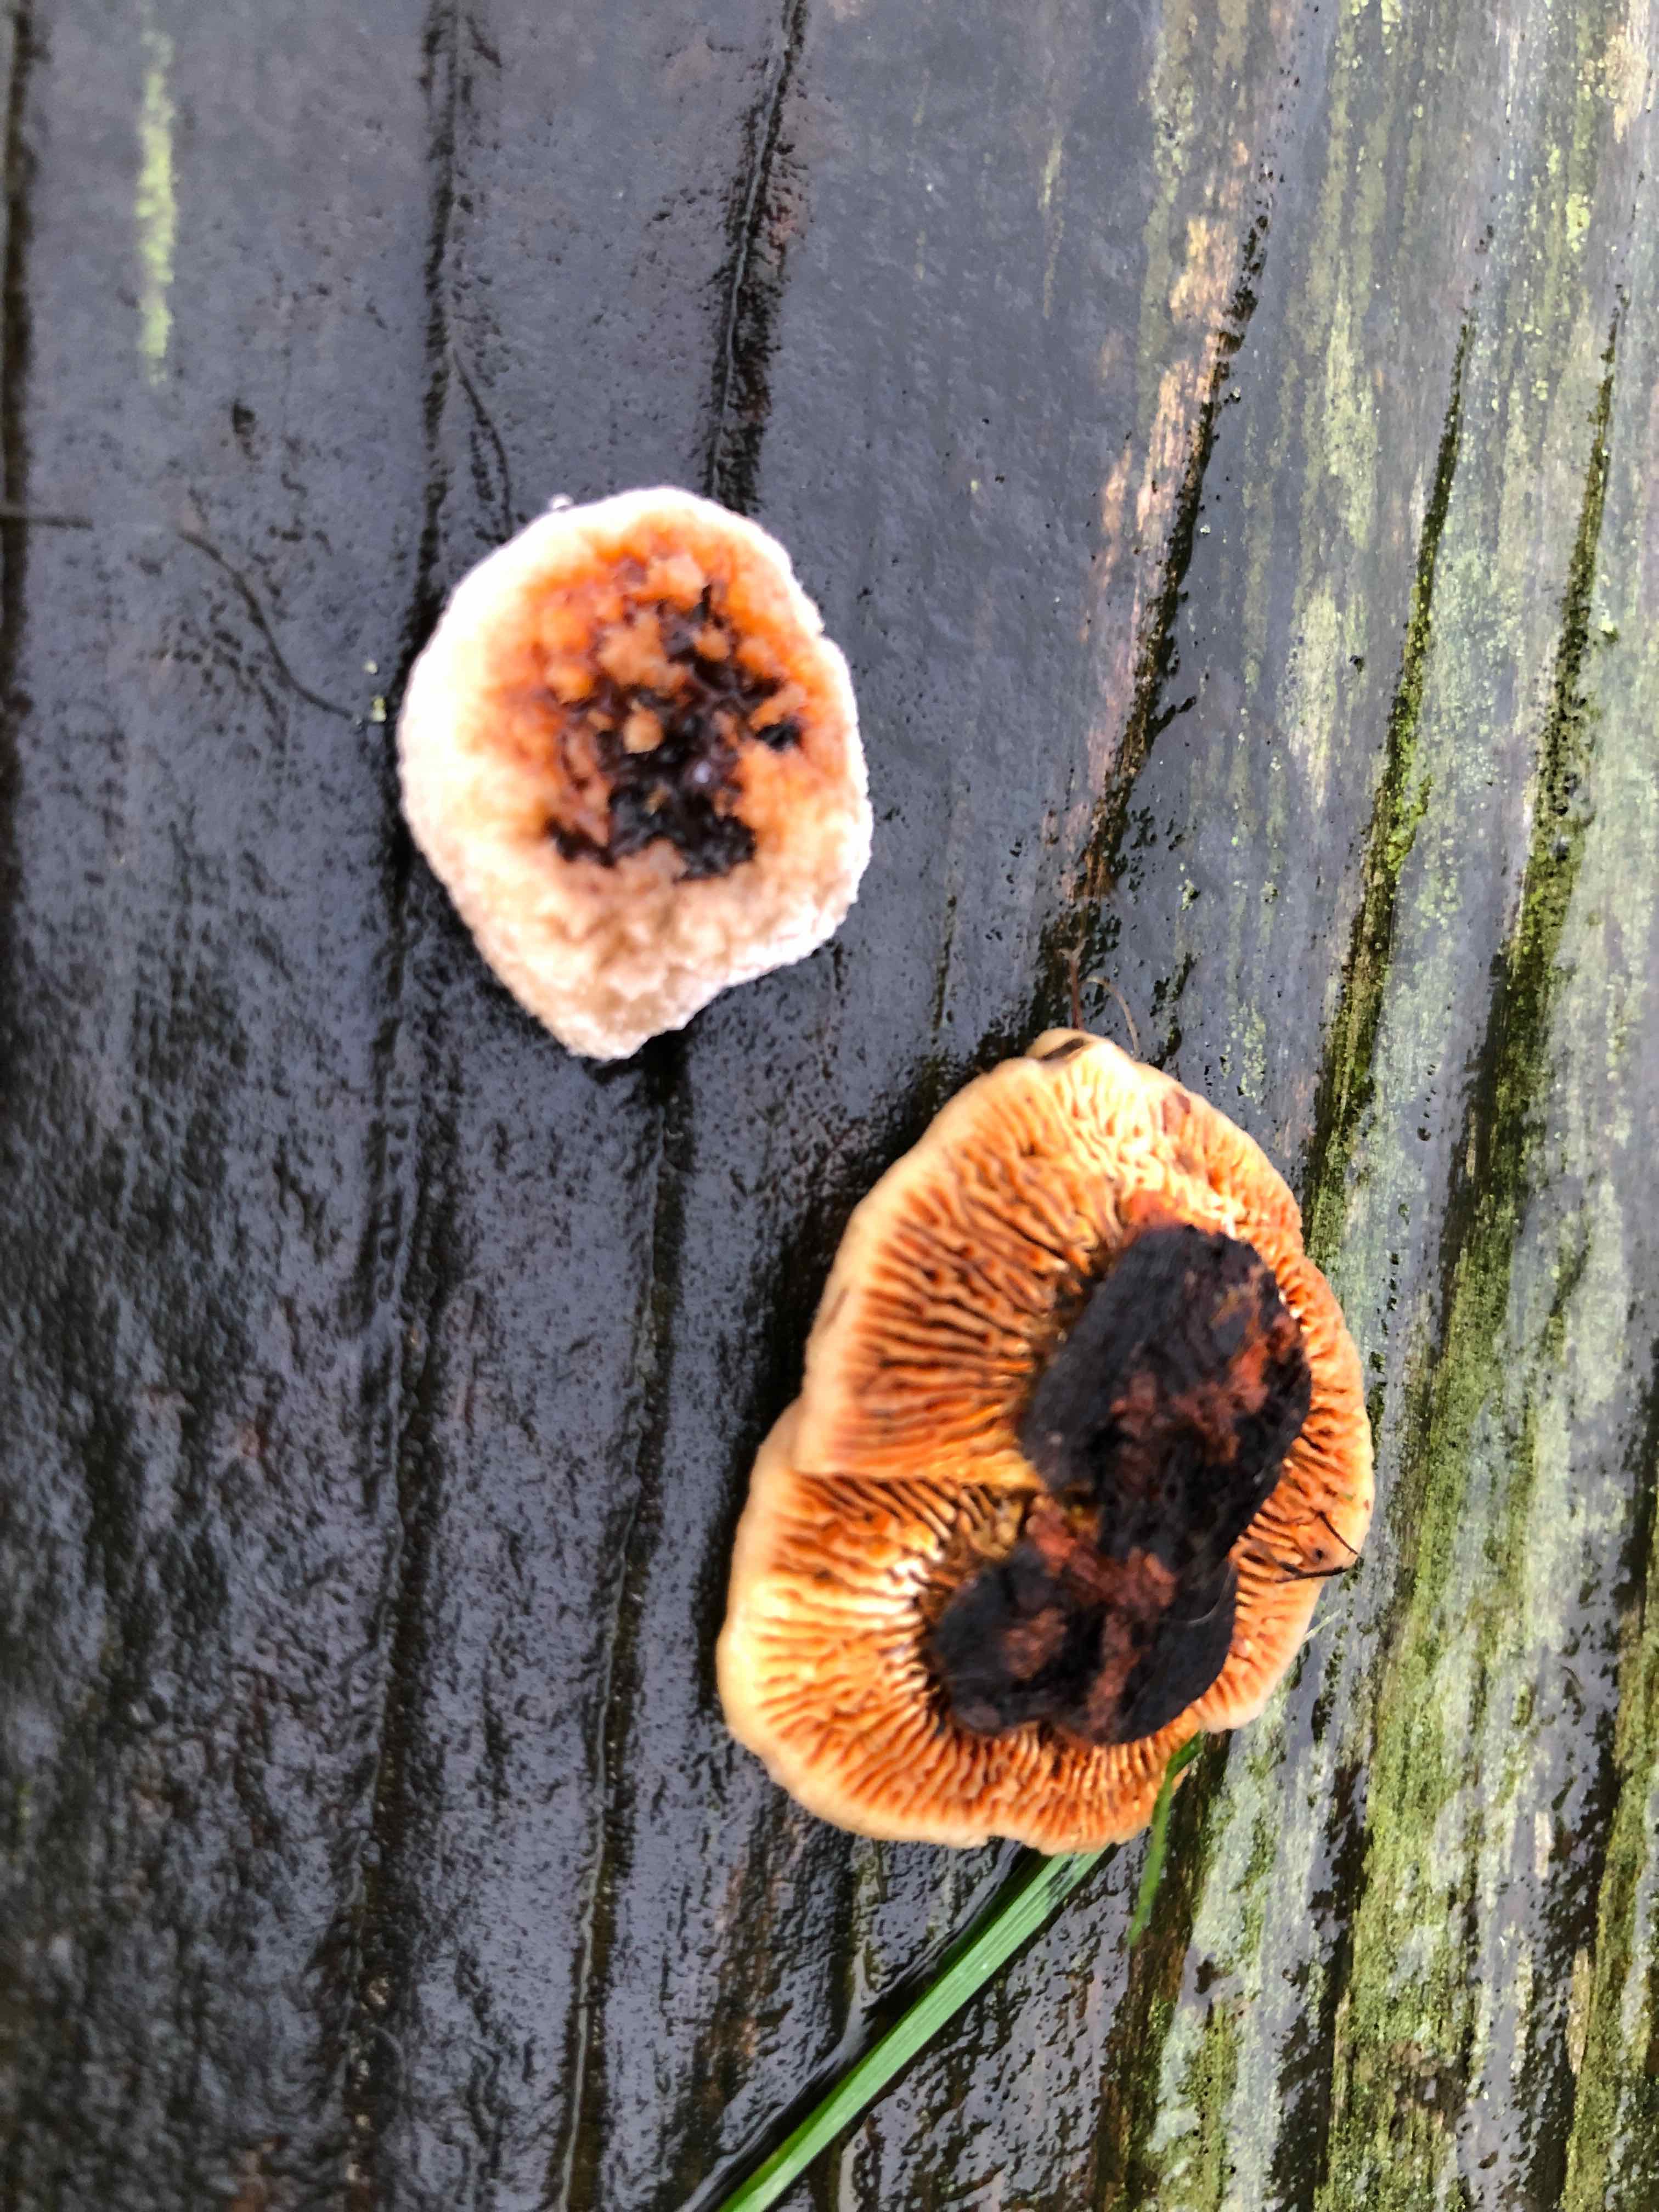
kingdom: Fungi
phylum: Basidiomycota
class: Agaricomycetes
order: Gloeophyllales
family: Gloeophyllaceae
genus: Gloeophyllum
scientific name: Gloeophyllum sepiarium
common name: fyrre-korkhat
